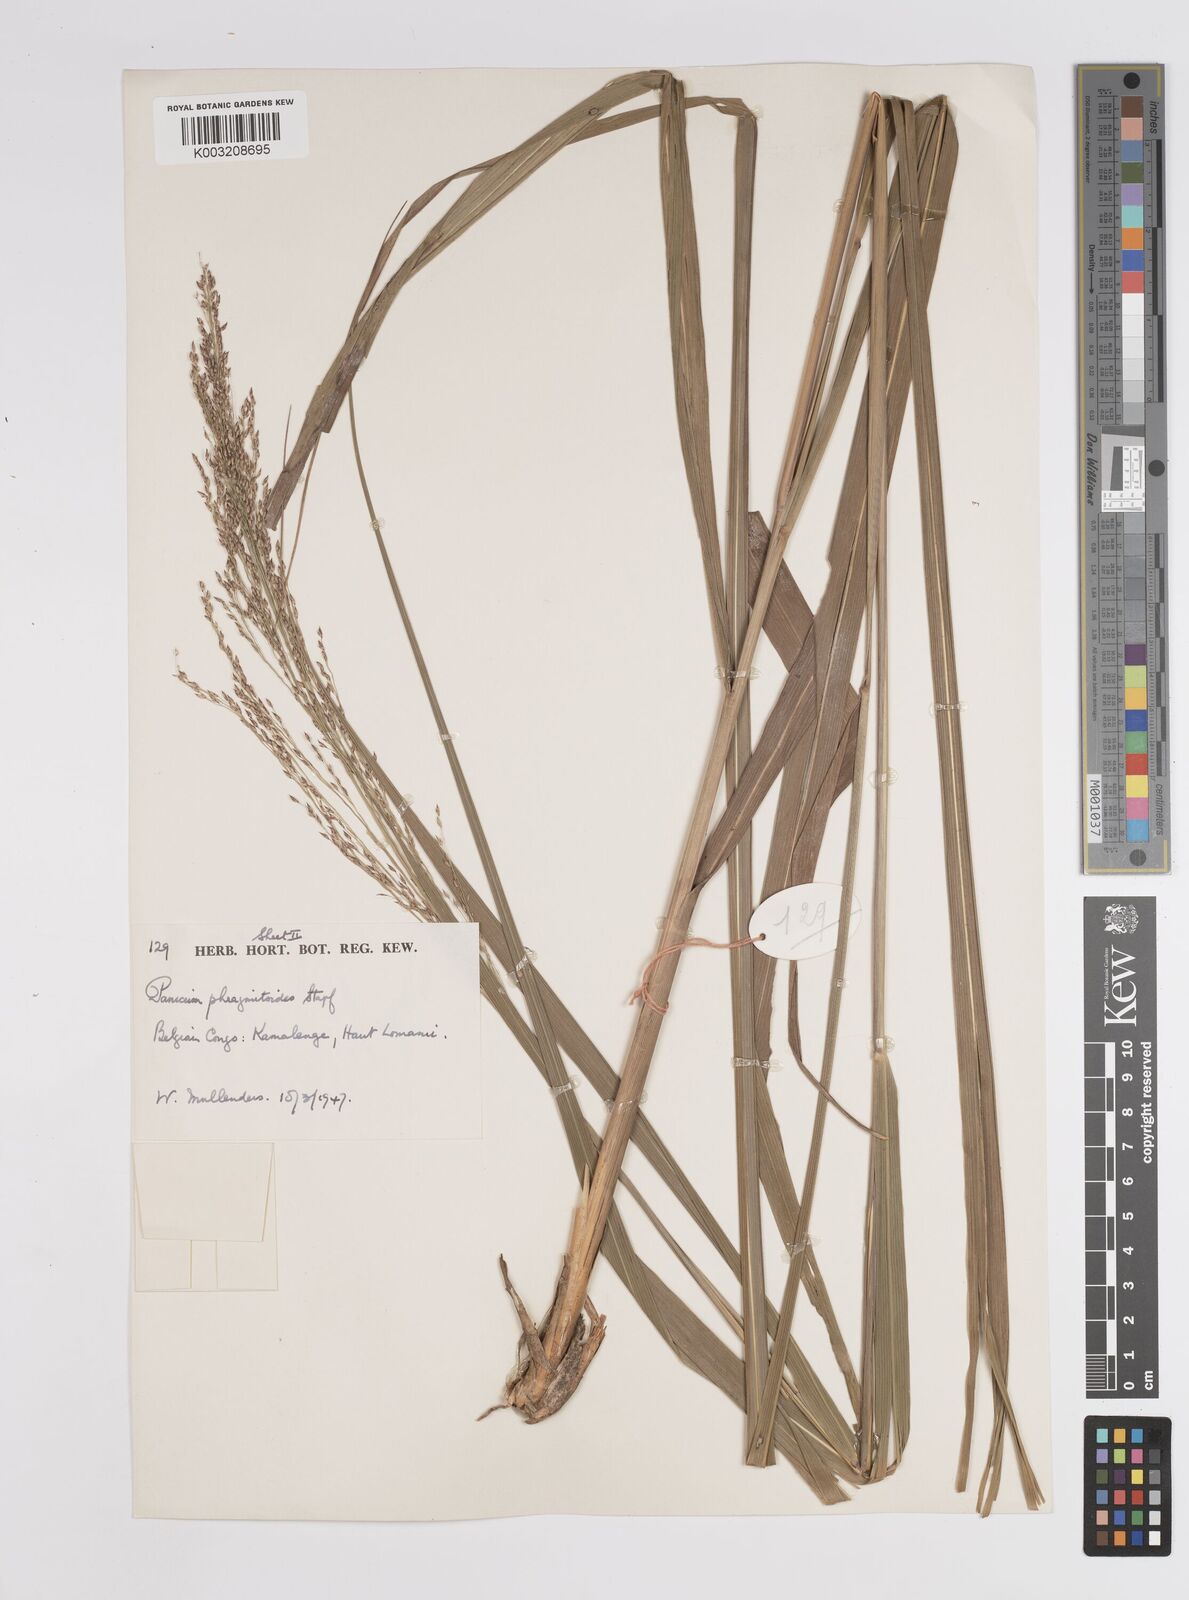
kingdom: Plantae
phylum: Tracheophyta
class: Liliopsida
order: Poales
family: Poaceae
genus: Panicum
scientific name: Panicum phragmitoides
